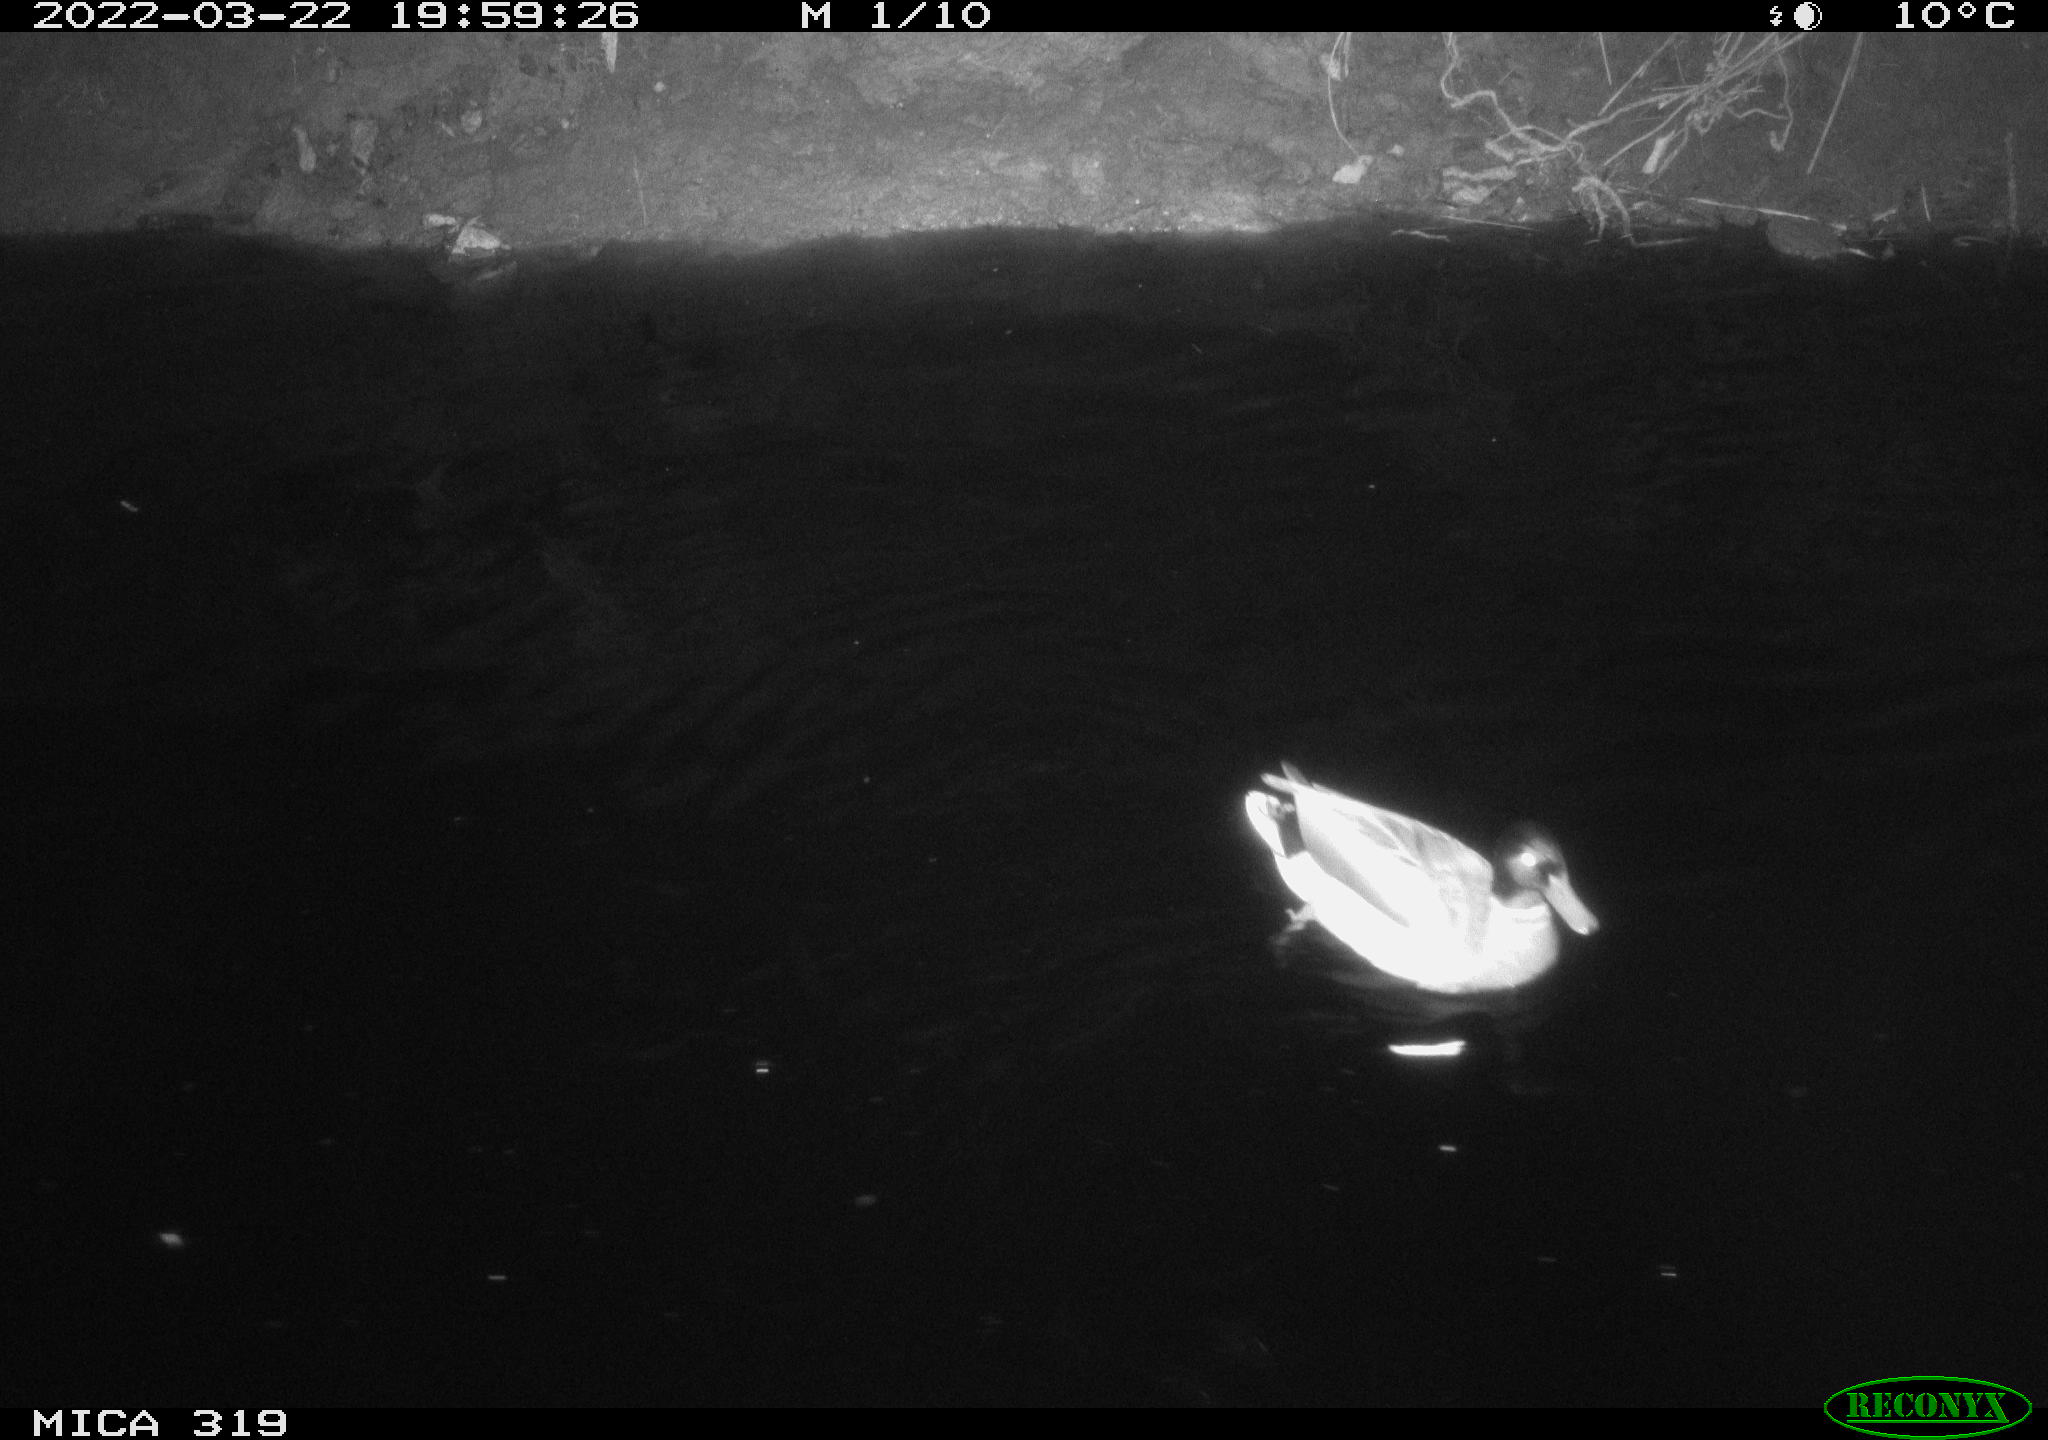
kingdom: Animalia
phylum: Chordata
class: Aves
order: Anseriformes
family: Anatidae
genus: Anas
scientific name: Anas platyrhynchos
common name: Mallard
